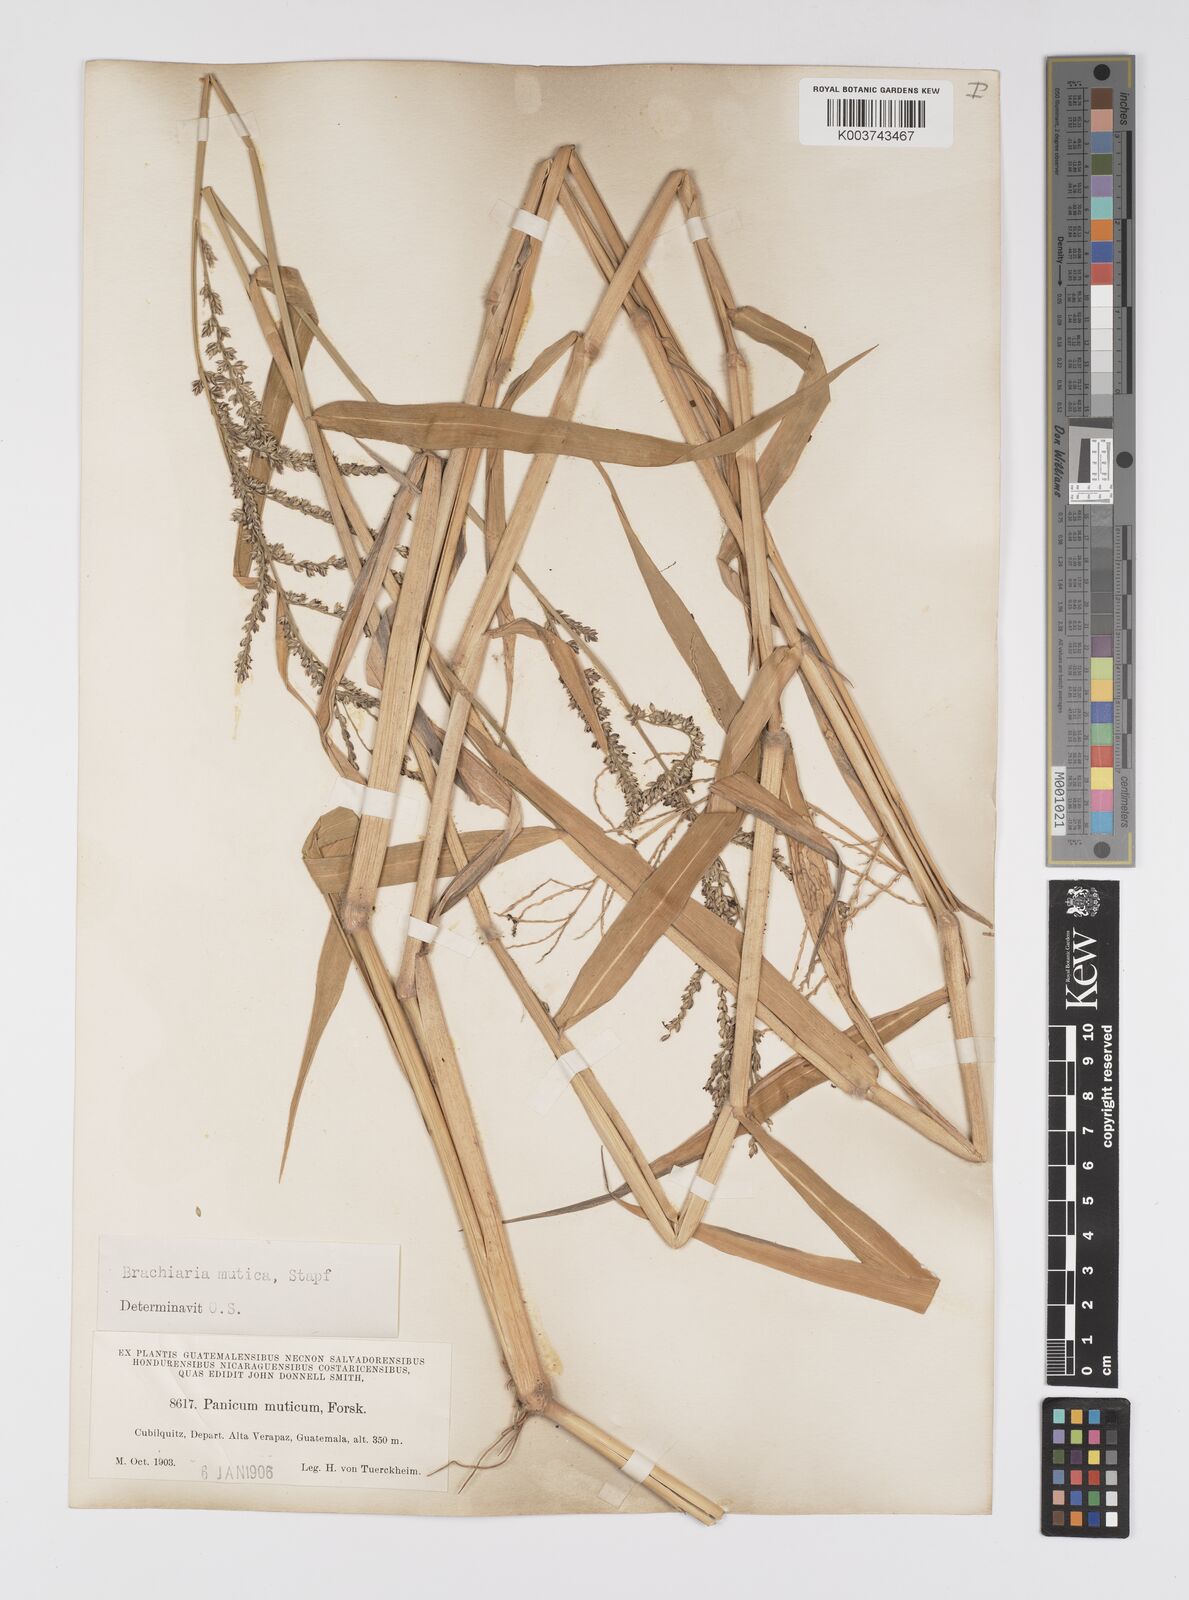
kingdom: Plantae
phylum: Tracheophyta
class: Liliopsida
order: Poales
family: Poaceae
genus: Urochloa
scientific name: Urochloa mutica
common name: Para grass
